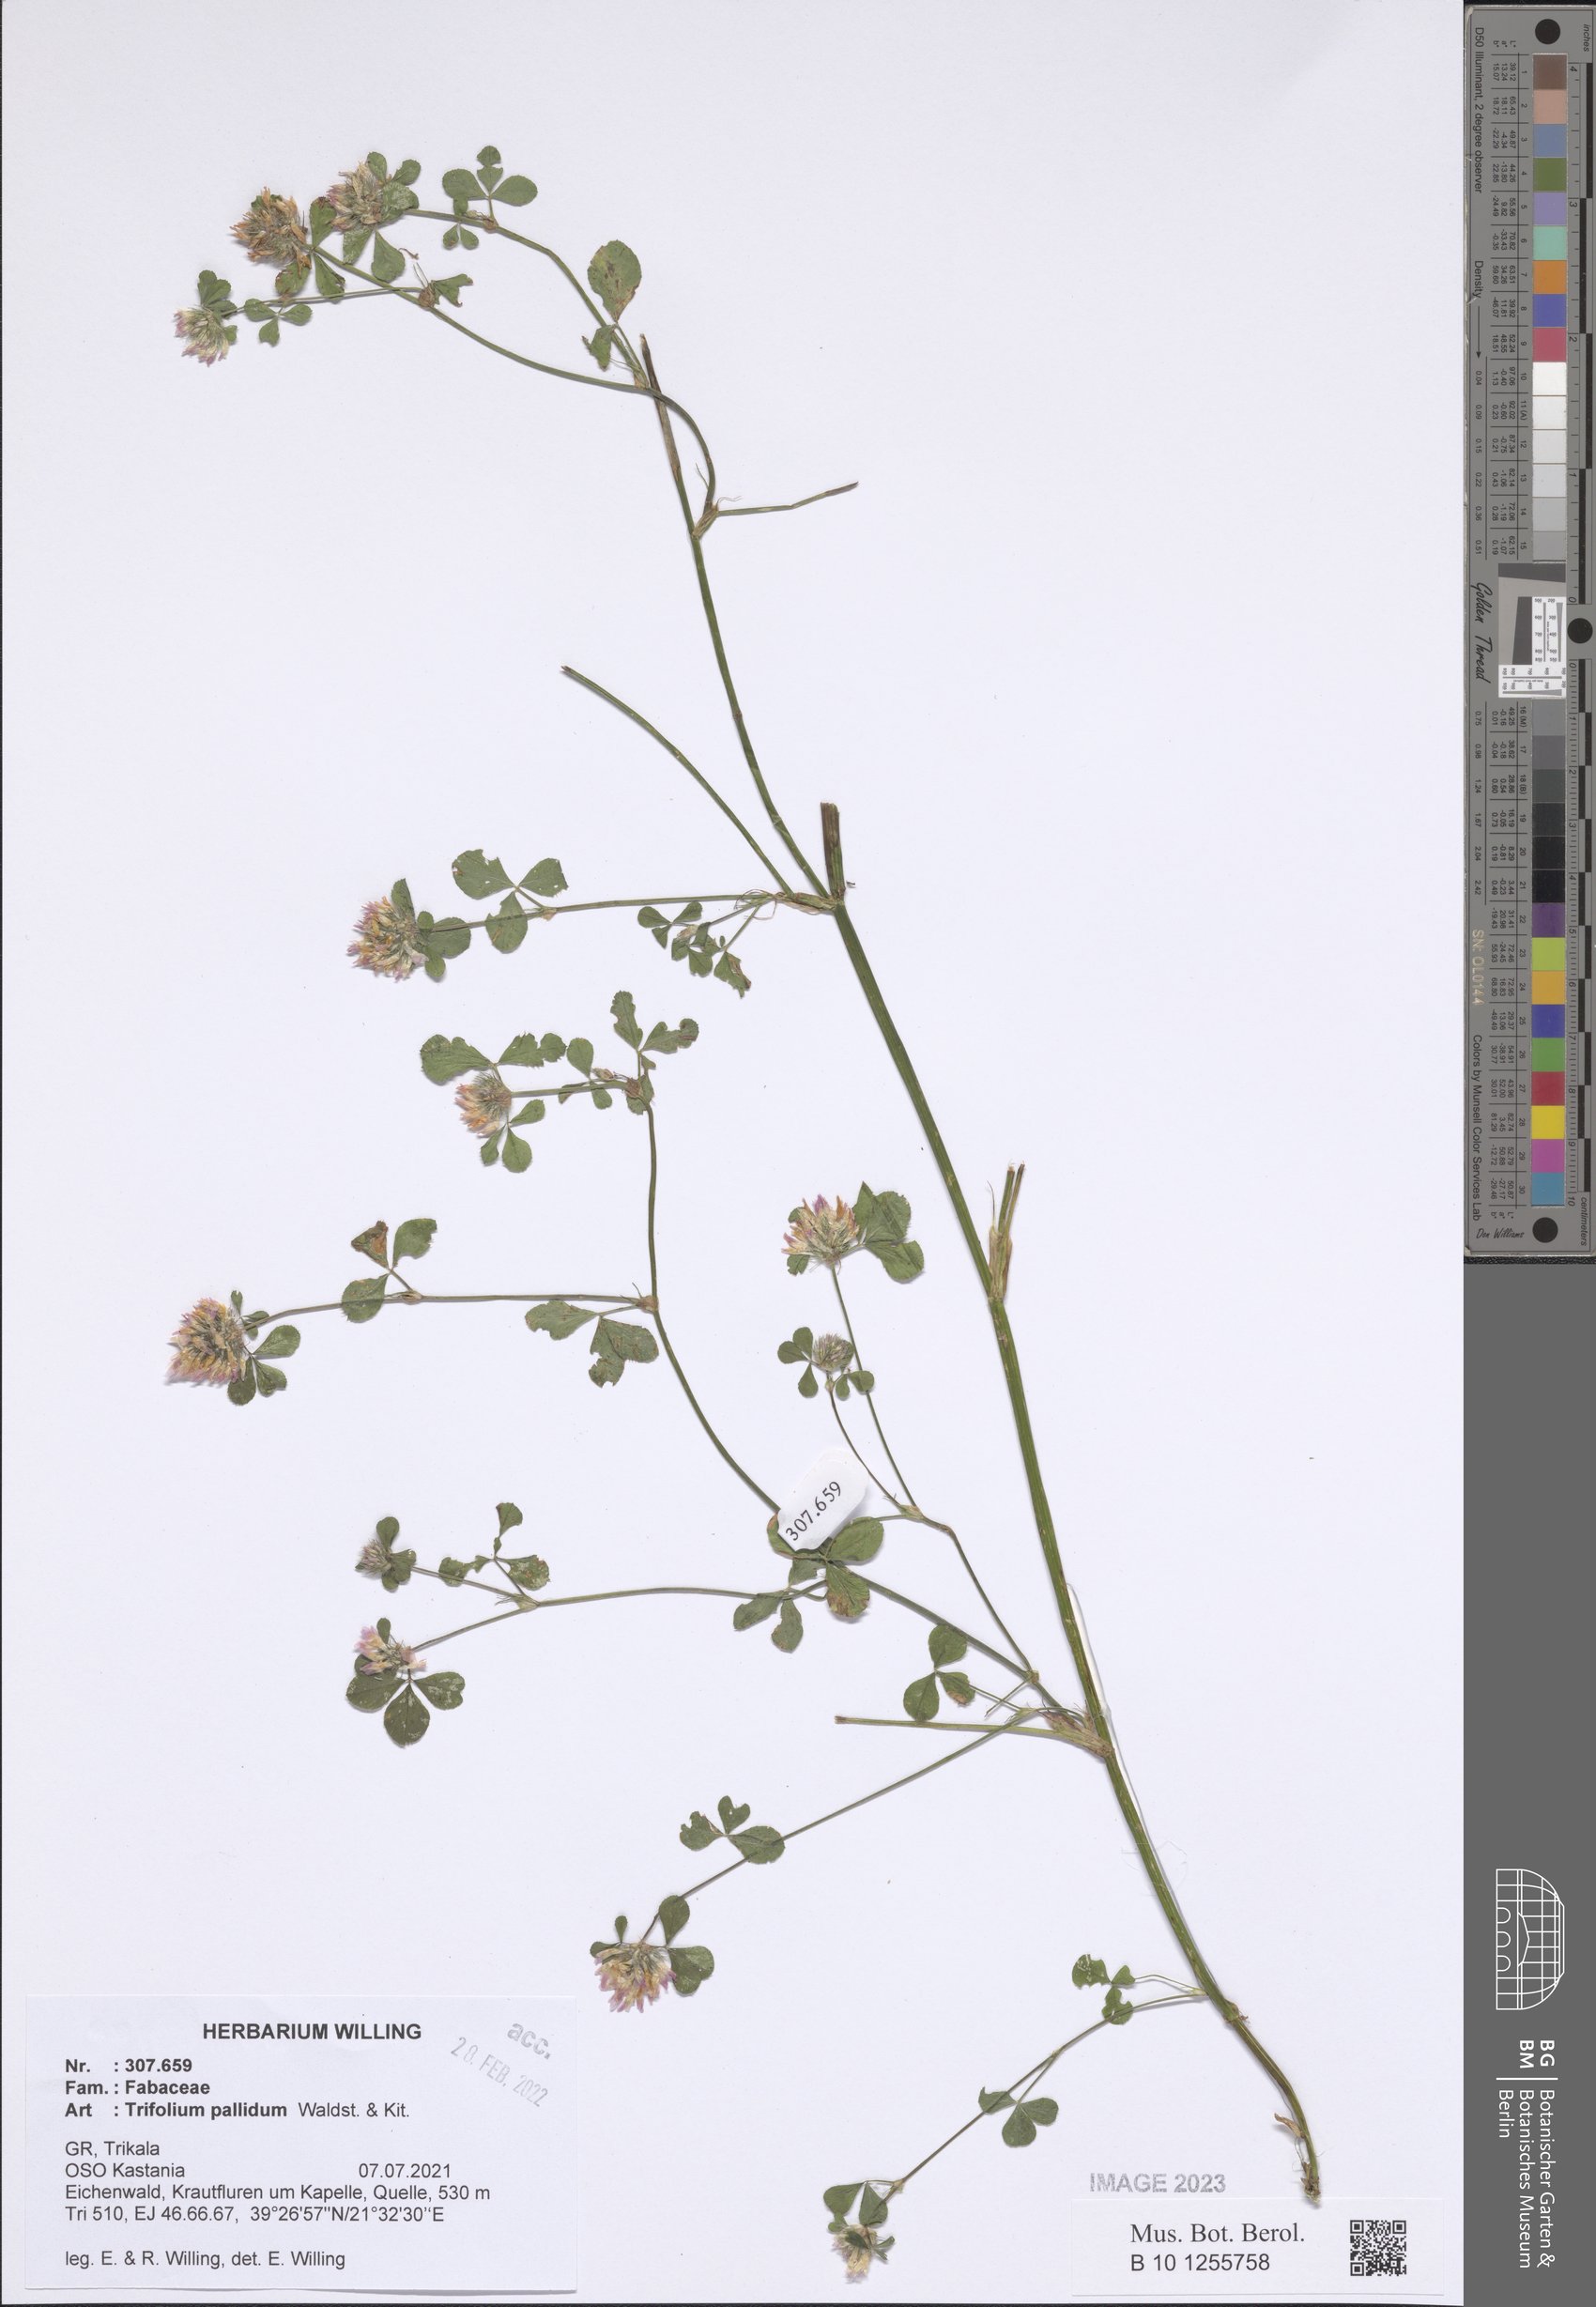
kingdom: Plantae
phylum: Tracheophyta
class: Magnoliopsida
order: Fabales
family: Fabaceae
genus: Trifolium
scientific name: Trifolium pallidum
